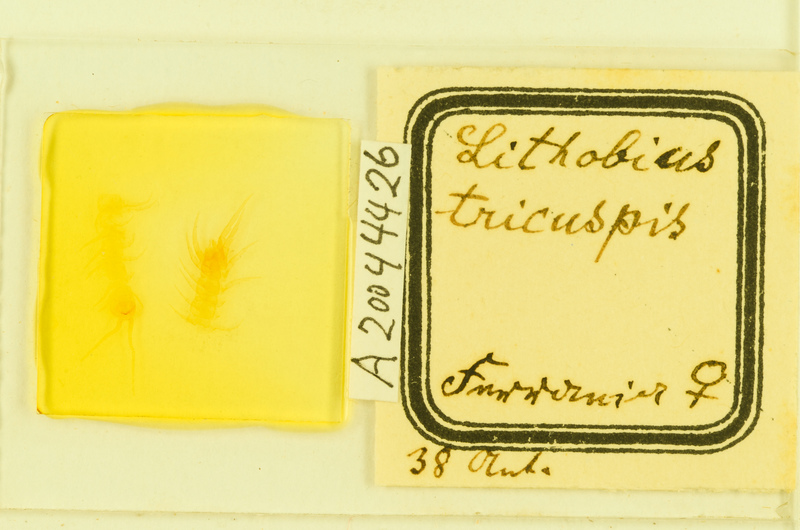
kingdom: Animalia
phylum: Arthropoda
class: Chilopoda
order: Lithobiomorpha
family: Lithobiidae
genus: Lithobius
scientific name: Lithobius tricuspis
